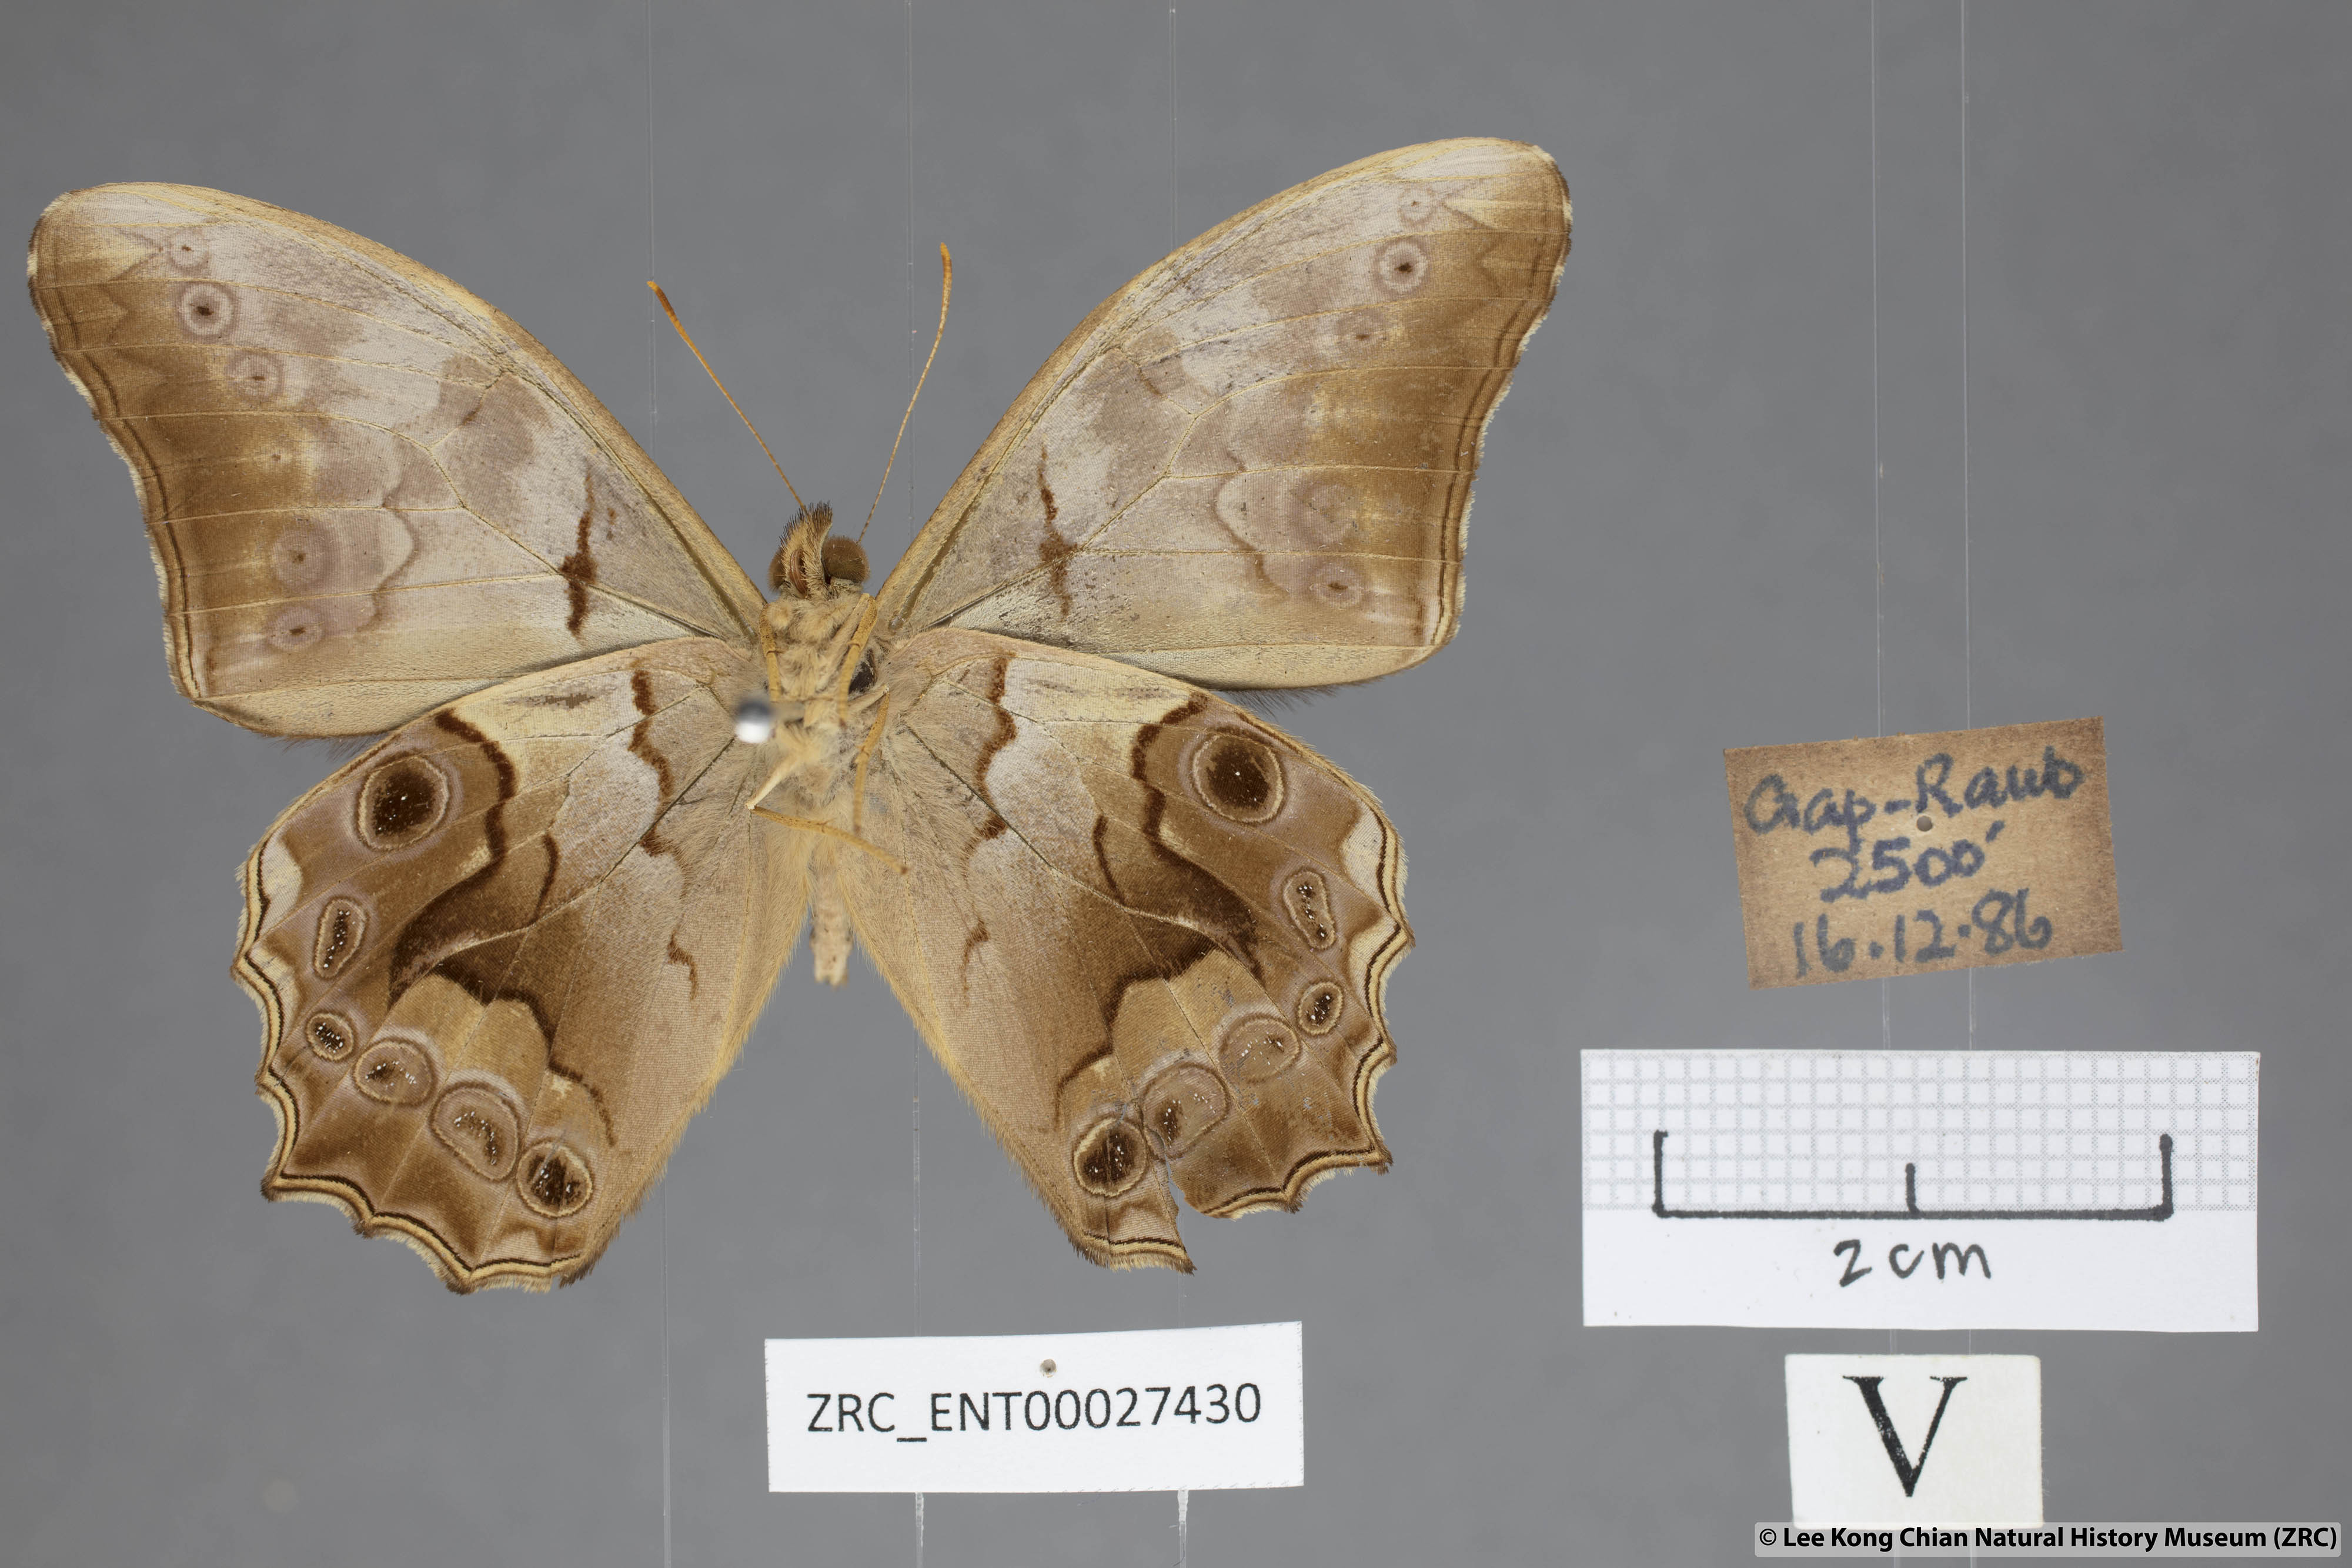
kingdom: Animalia
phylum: Arthropoda
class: Insecta
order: Lepidoptera
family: Nymphalidae
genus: Lethe
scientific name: Lethe chandica
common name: Angled red forester
